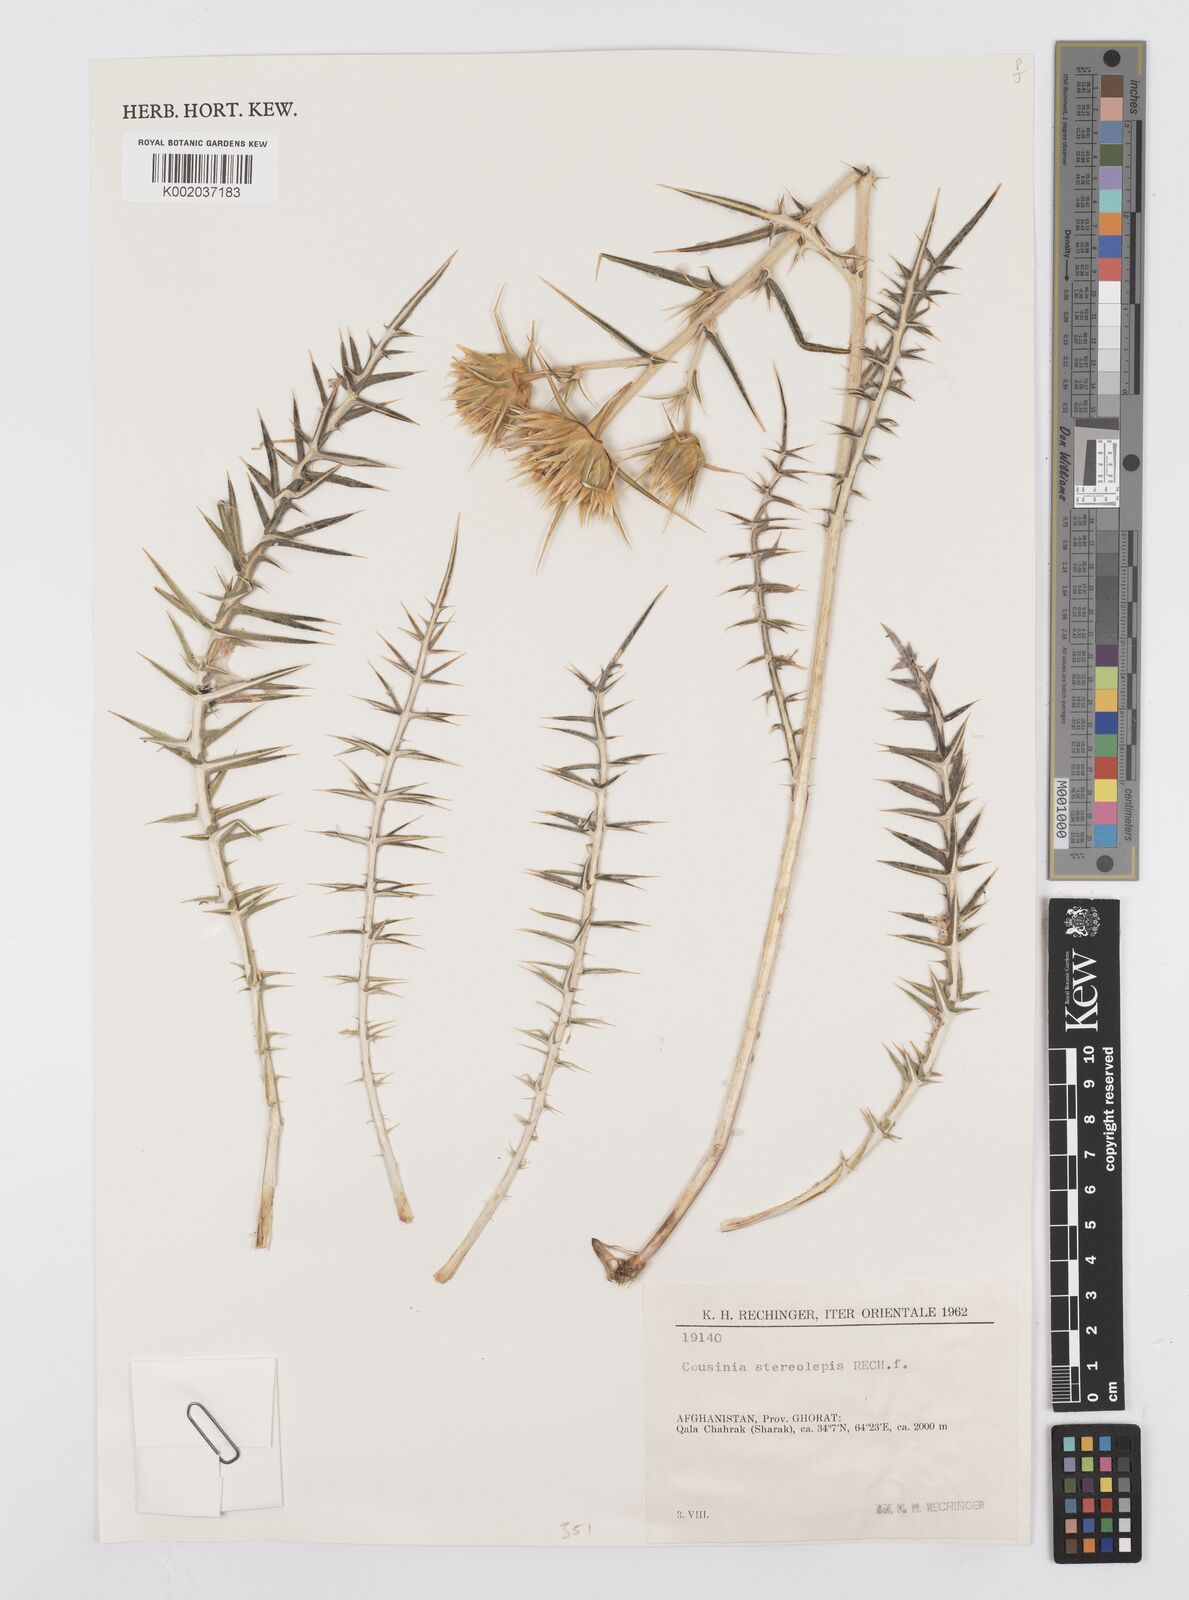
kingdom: Plantae
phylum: Tracheophyta
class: Magnoliopsida
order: Asterales
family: Asteraceae
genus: Cousinia
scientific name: Cousinia stereolepis
